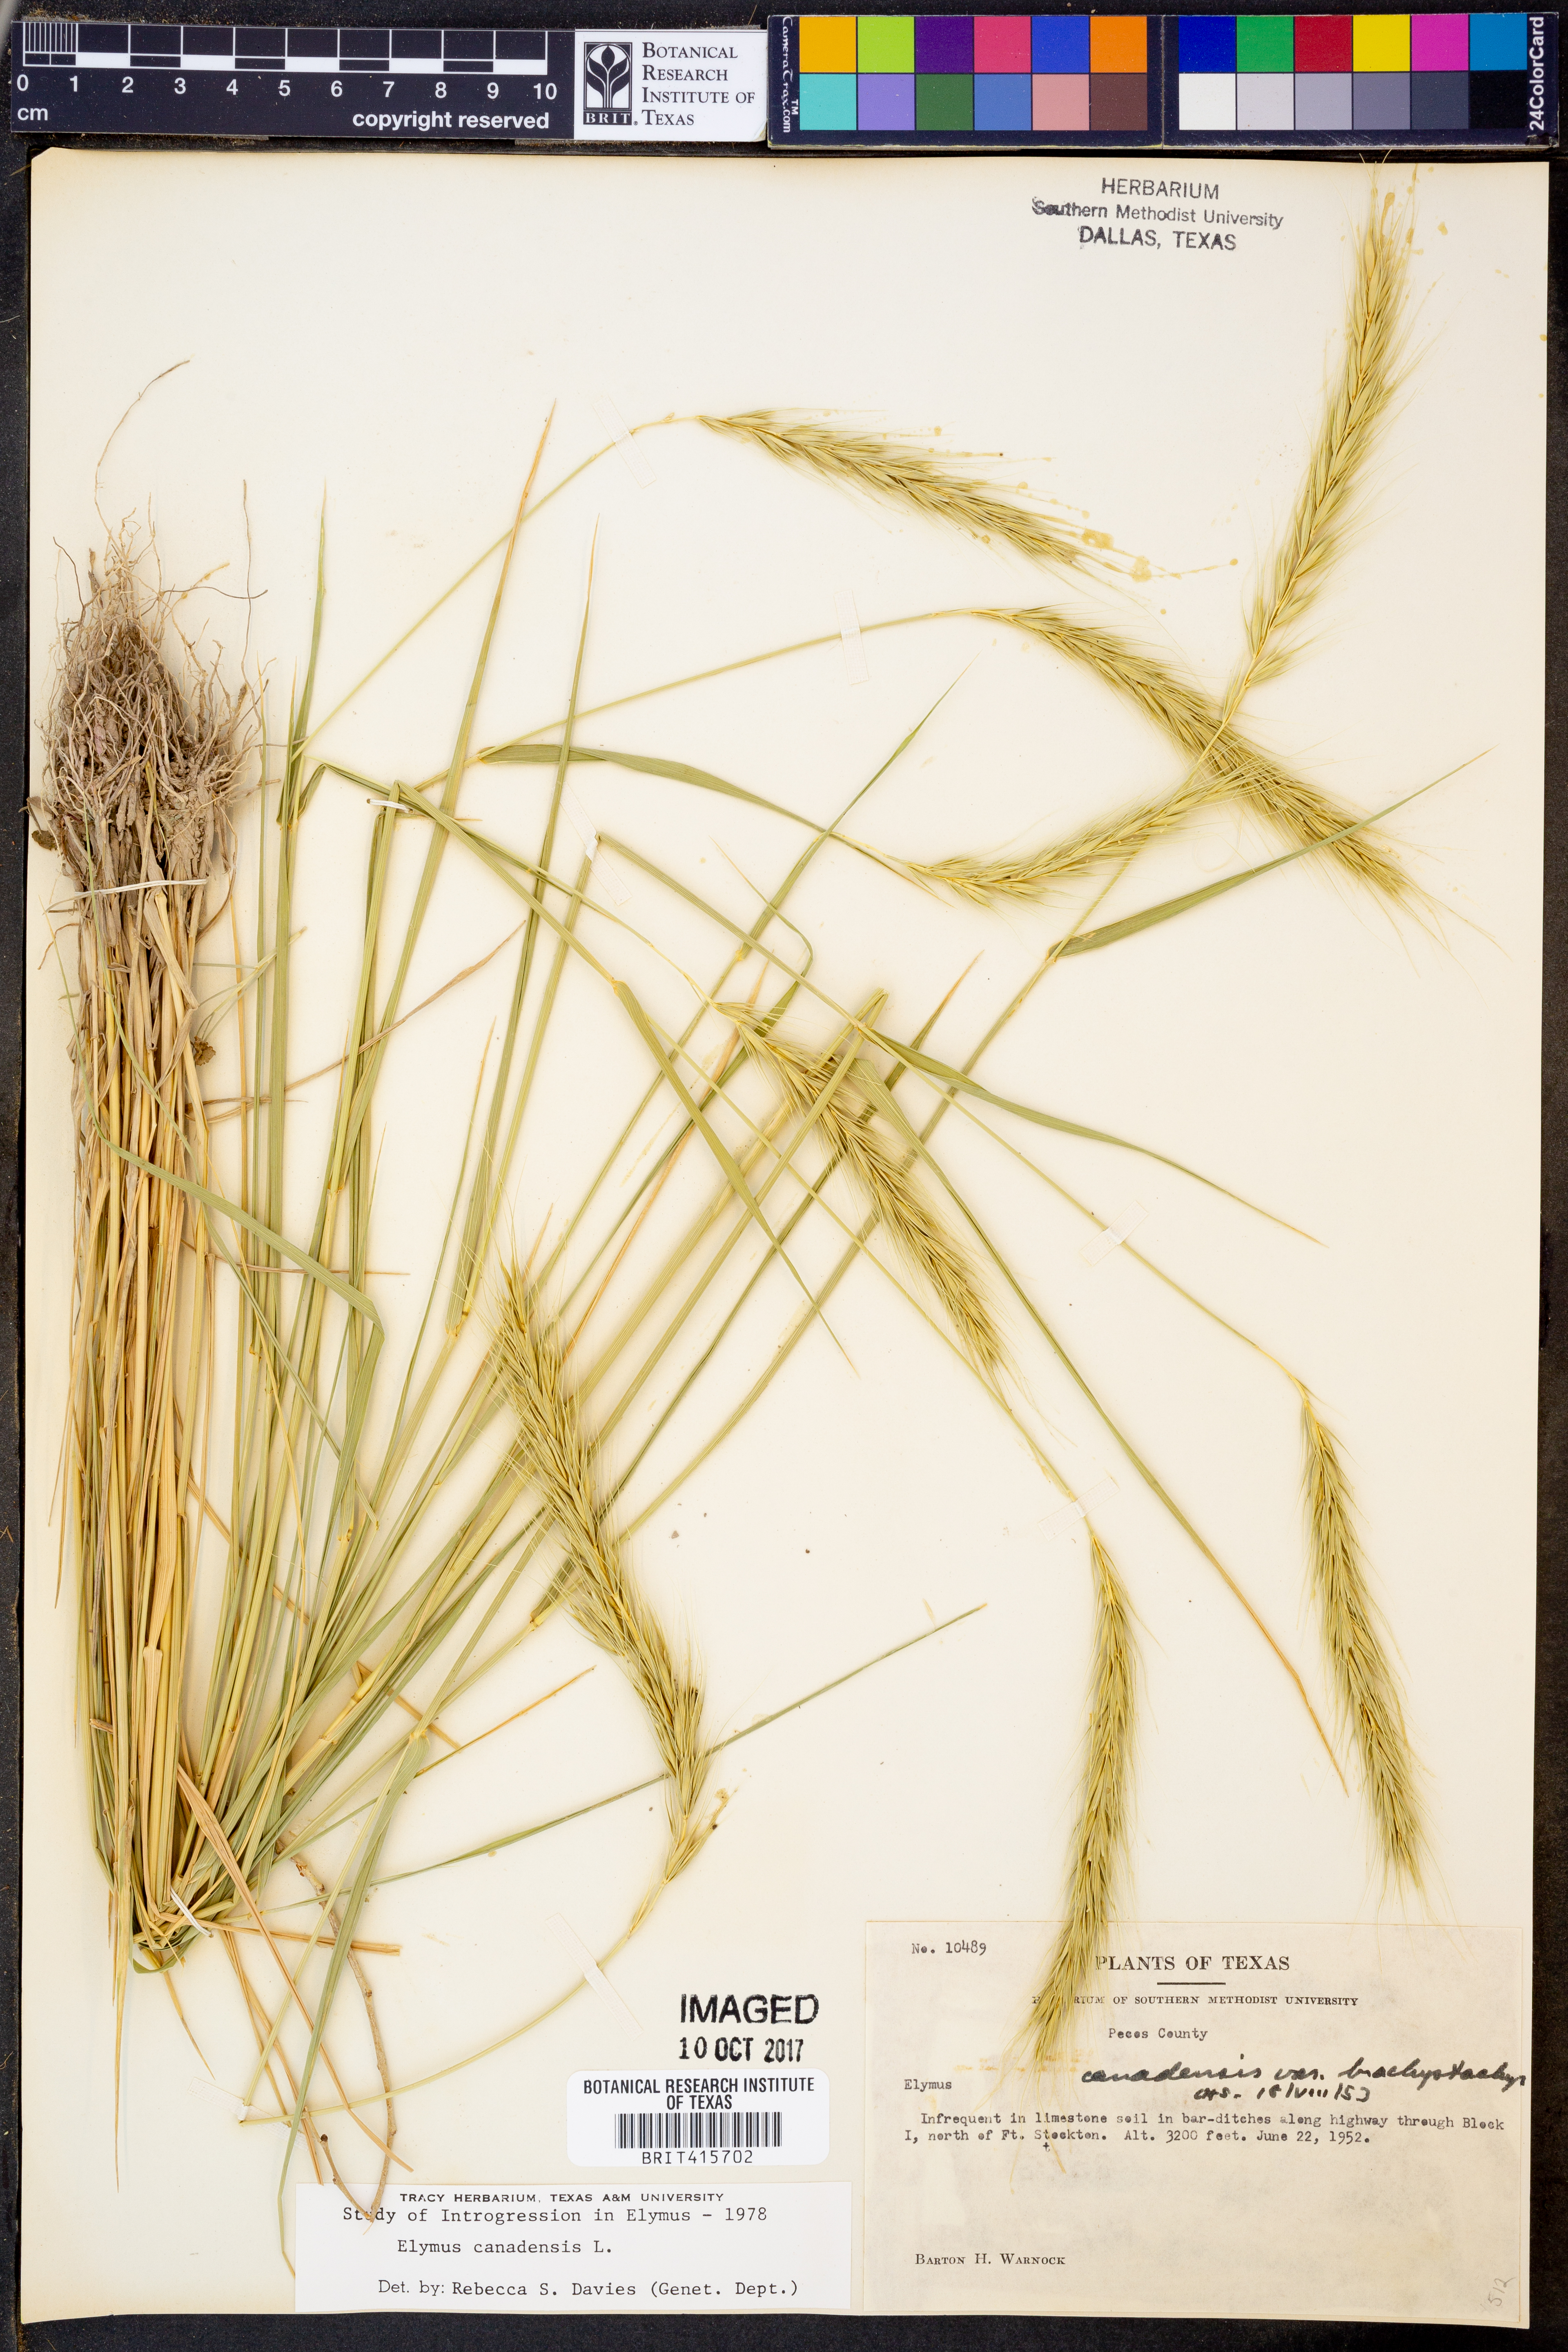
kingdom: Plantae
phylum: Tracheophyta
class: Liliopsida
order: Poales
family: Poaceae
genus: Elymus
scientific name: Elymus canadensis
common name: Canada wild rye
